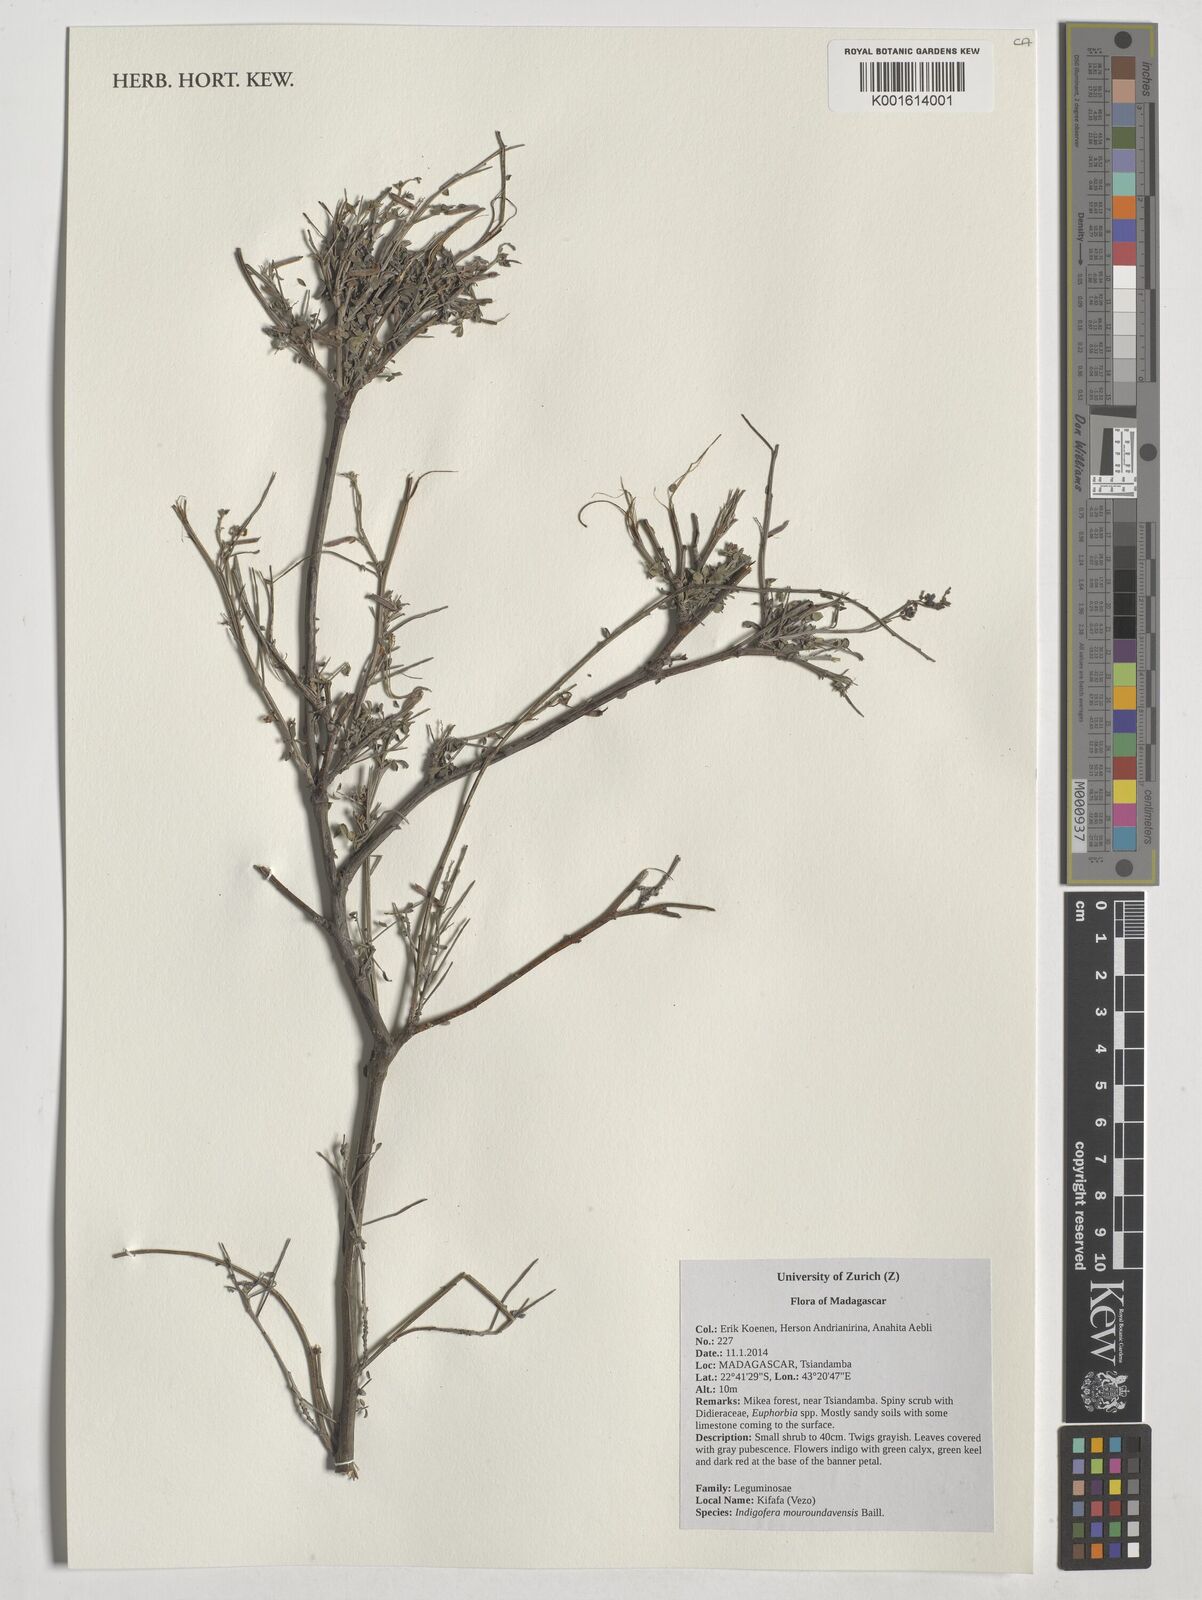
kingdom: Plantae
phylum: Tracheophyta
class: Magnoliopsida
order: Fabales
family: Fabaceae
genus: Indigofera
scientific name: Indigofera mouroundavensis
